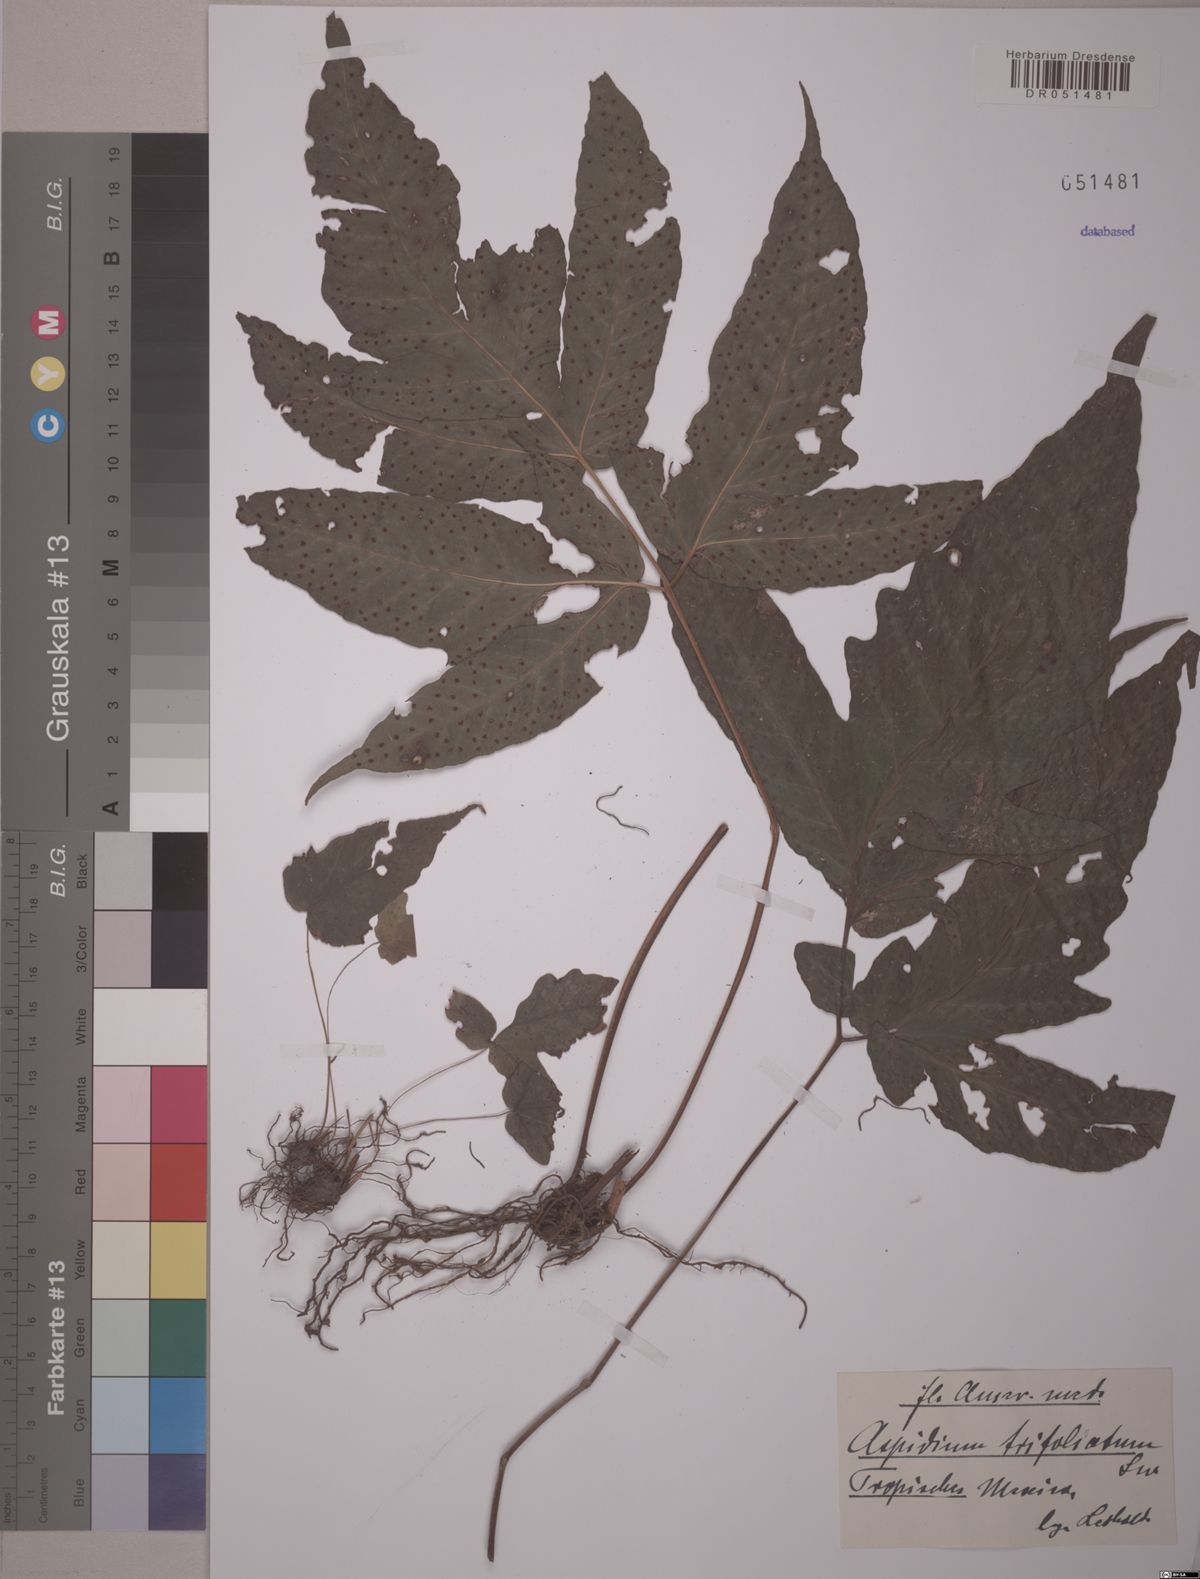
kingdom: Plantae
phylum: Tracheophyta
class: Polypodiopsida
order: Polypodiales
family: Tectariaceae
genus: Tectaria
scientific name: Tectaria trifoliata
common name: Threeleaf halberd fern
